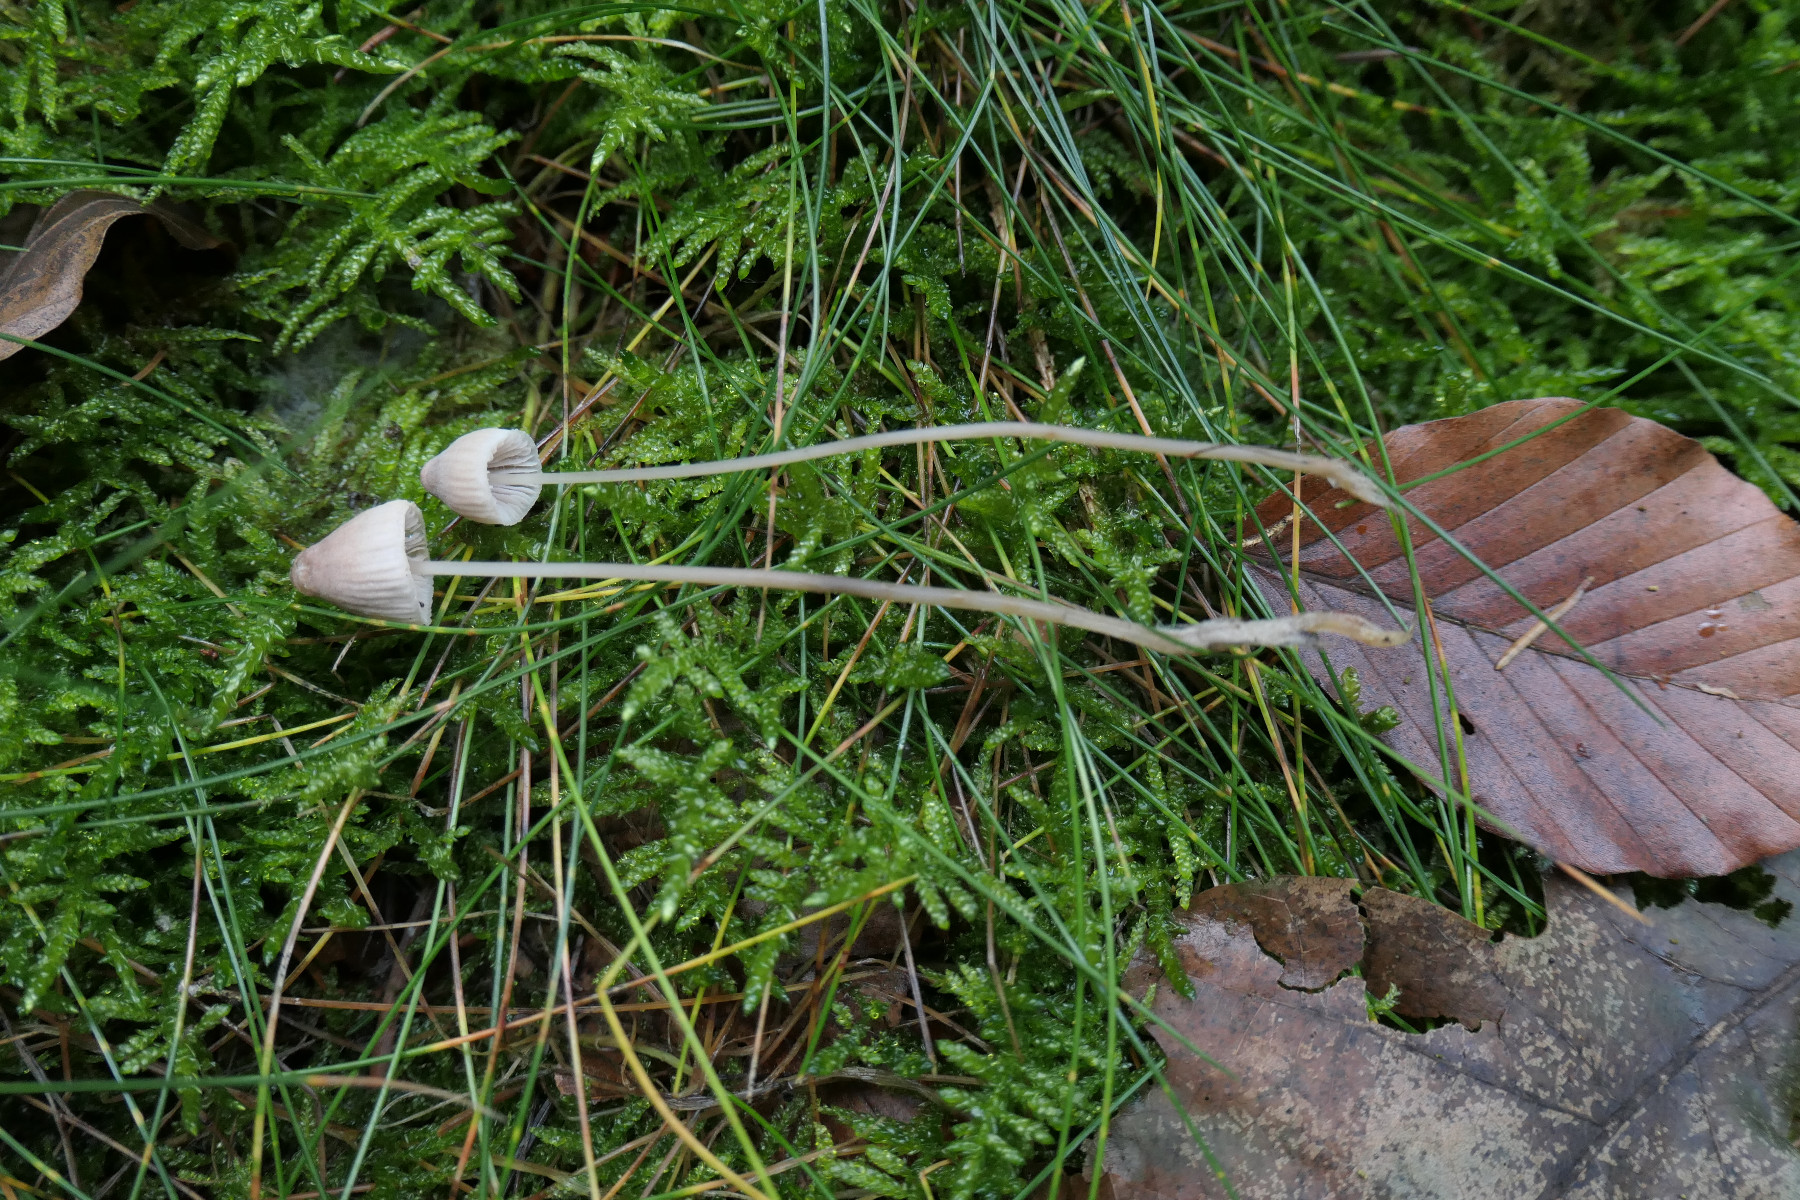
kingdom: Fungi
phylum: Basidiomycota
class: Agaricomycetes
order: Agaricales
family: Mycenaceae
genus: Mycena
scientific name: Mycena metata
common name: rødlig huesvamp
